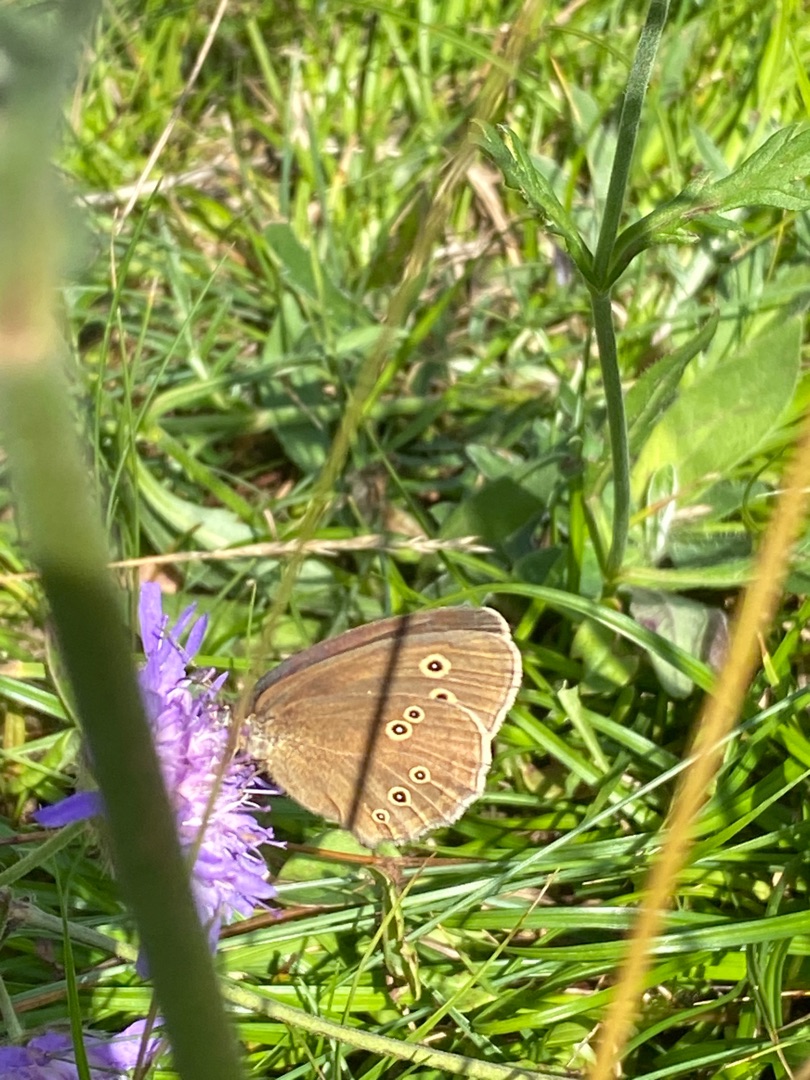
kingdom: Animalia
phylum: Arthropoda
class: Insecta
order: Lepidoptera
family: Nymphalidae
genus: Aphantopus
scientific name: Aphantopus hyperantus
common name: Engrandøje
